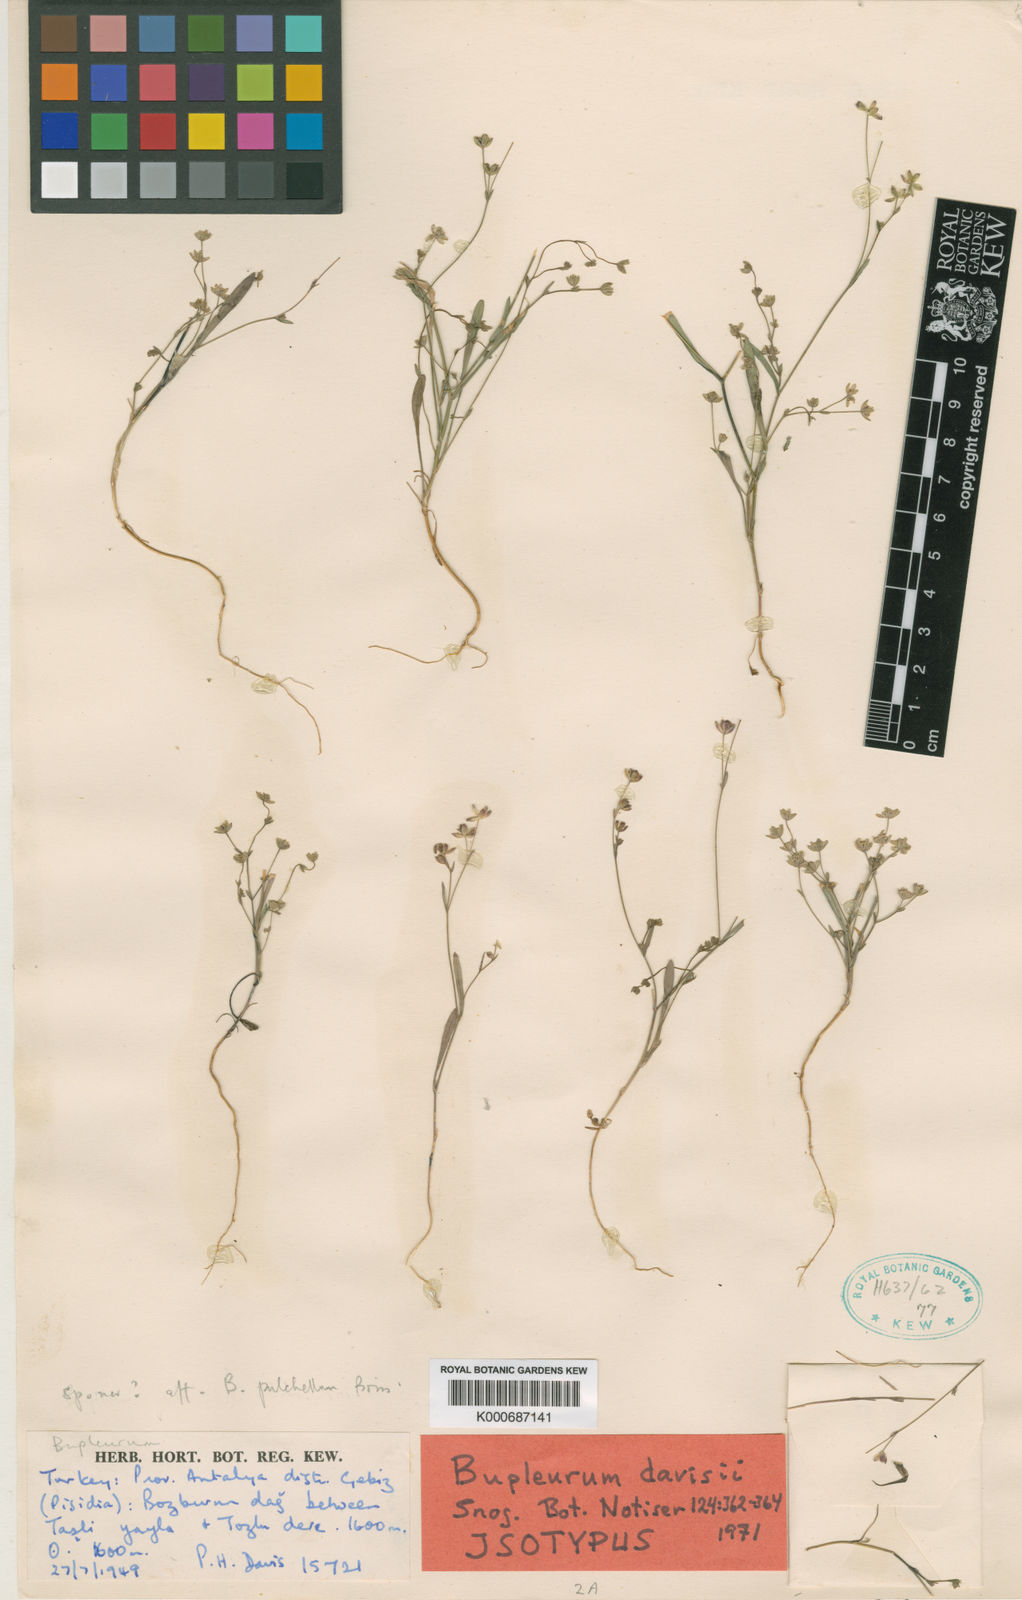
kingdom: Plantae
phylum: Tracheophyta
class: Magnoliopsida
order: Apiales
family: Apiaceae
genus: Bupleurum
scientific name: Bupleurum davisii
